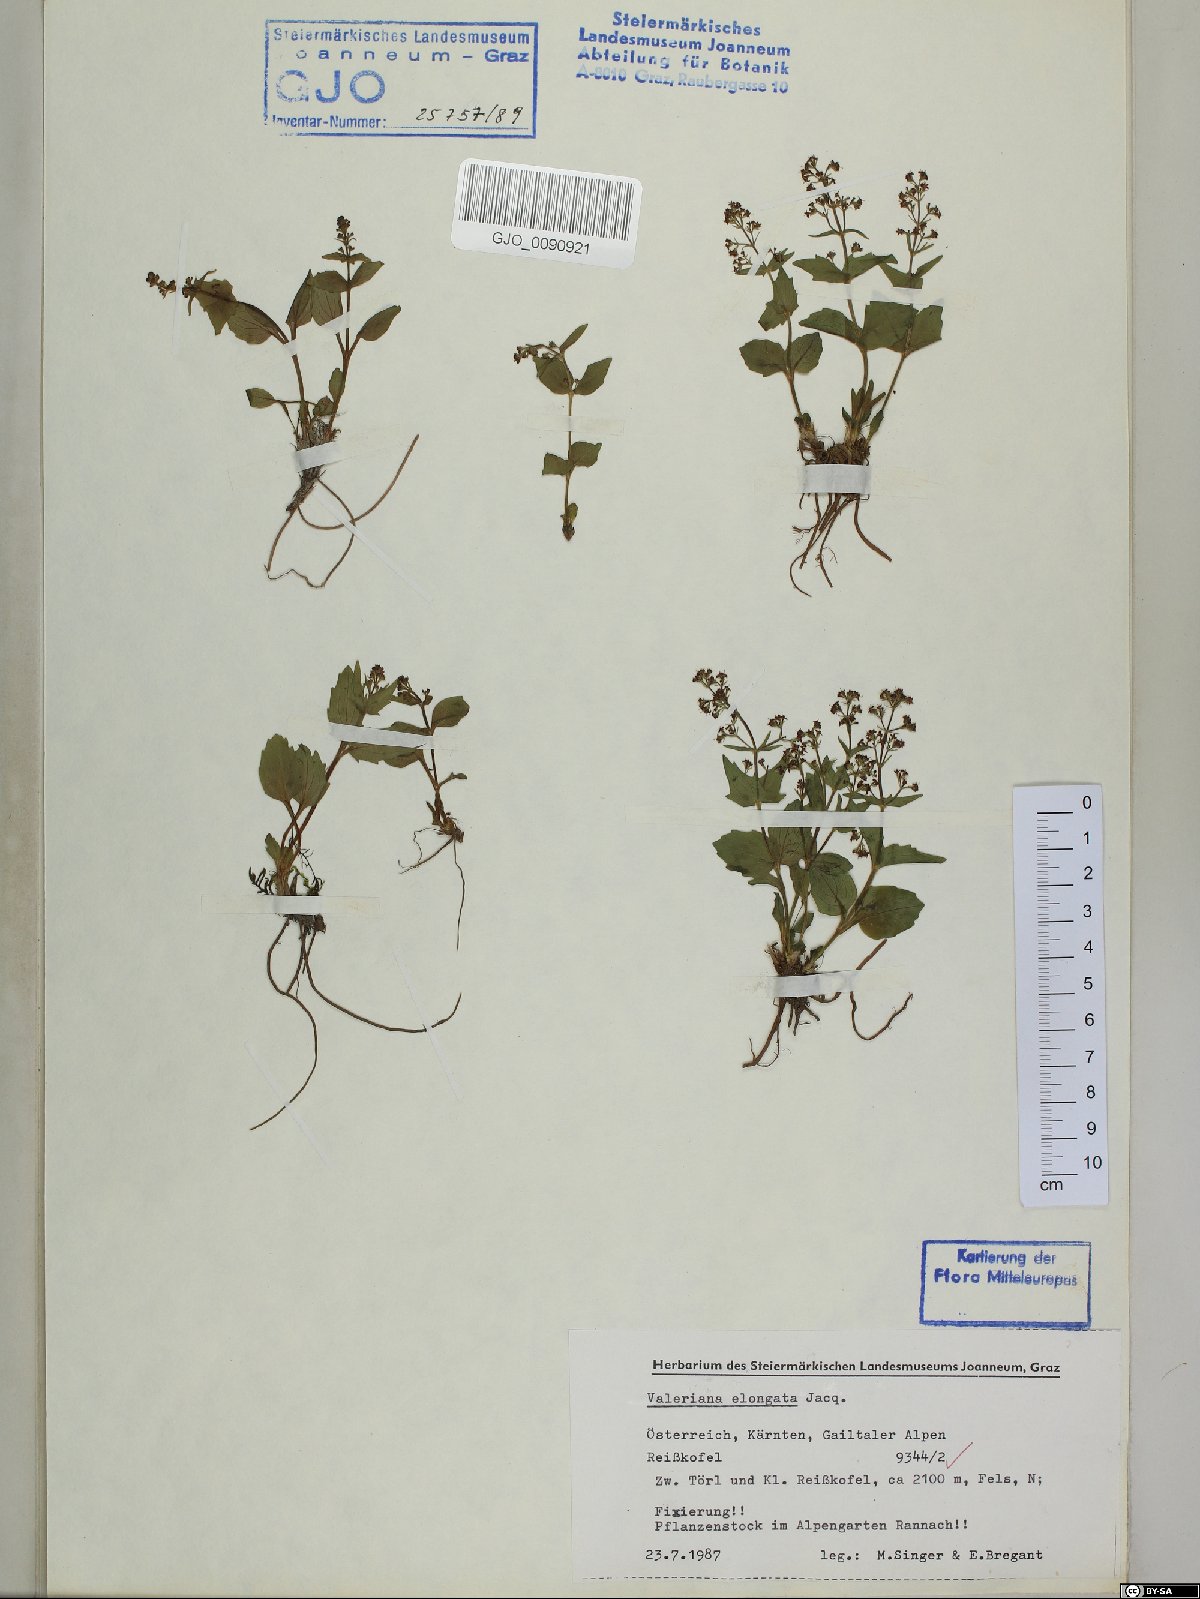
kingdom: Plantae
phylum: Tracheophyta
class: Magnoliopsida
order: Dipsacales
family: Caprifoliaceae
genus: Valeriana
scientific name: Valeriana elongata
